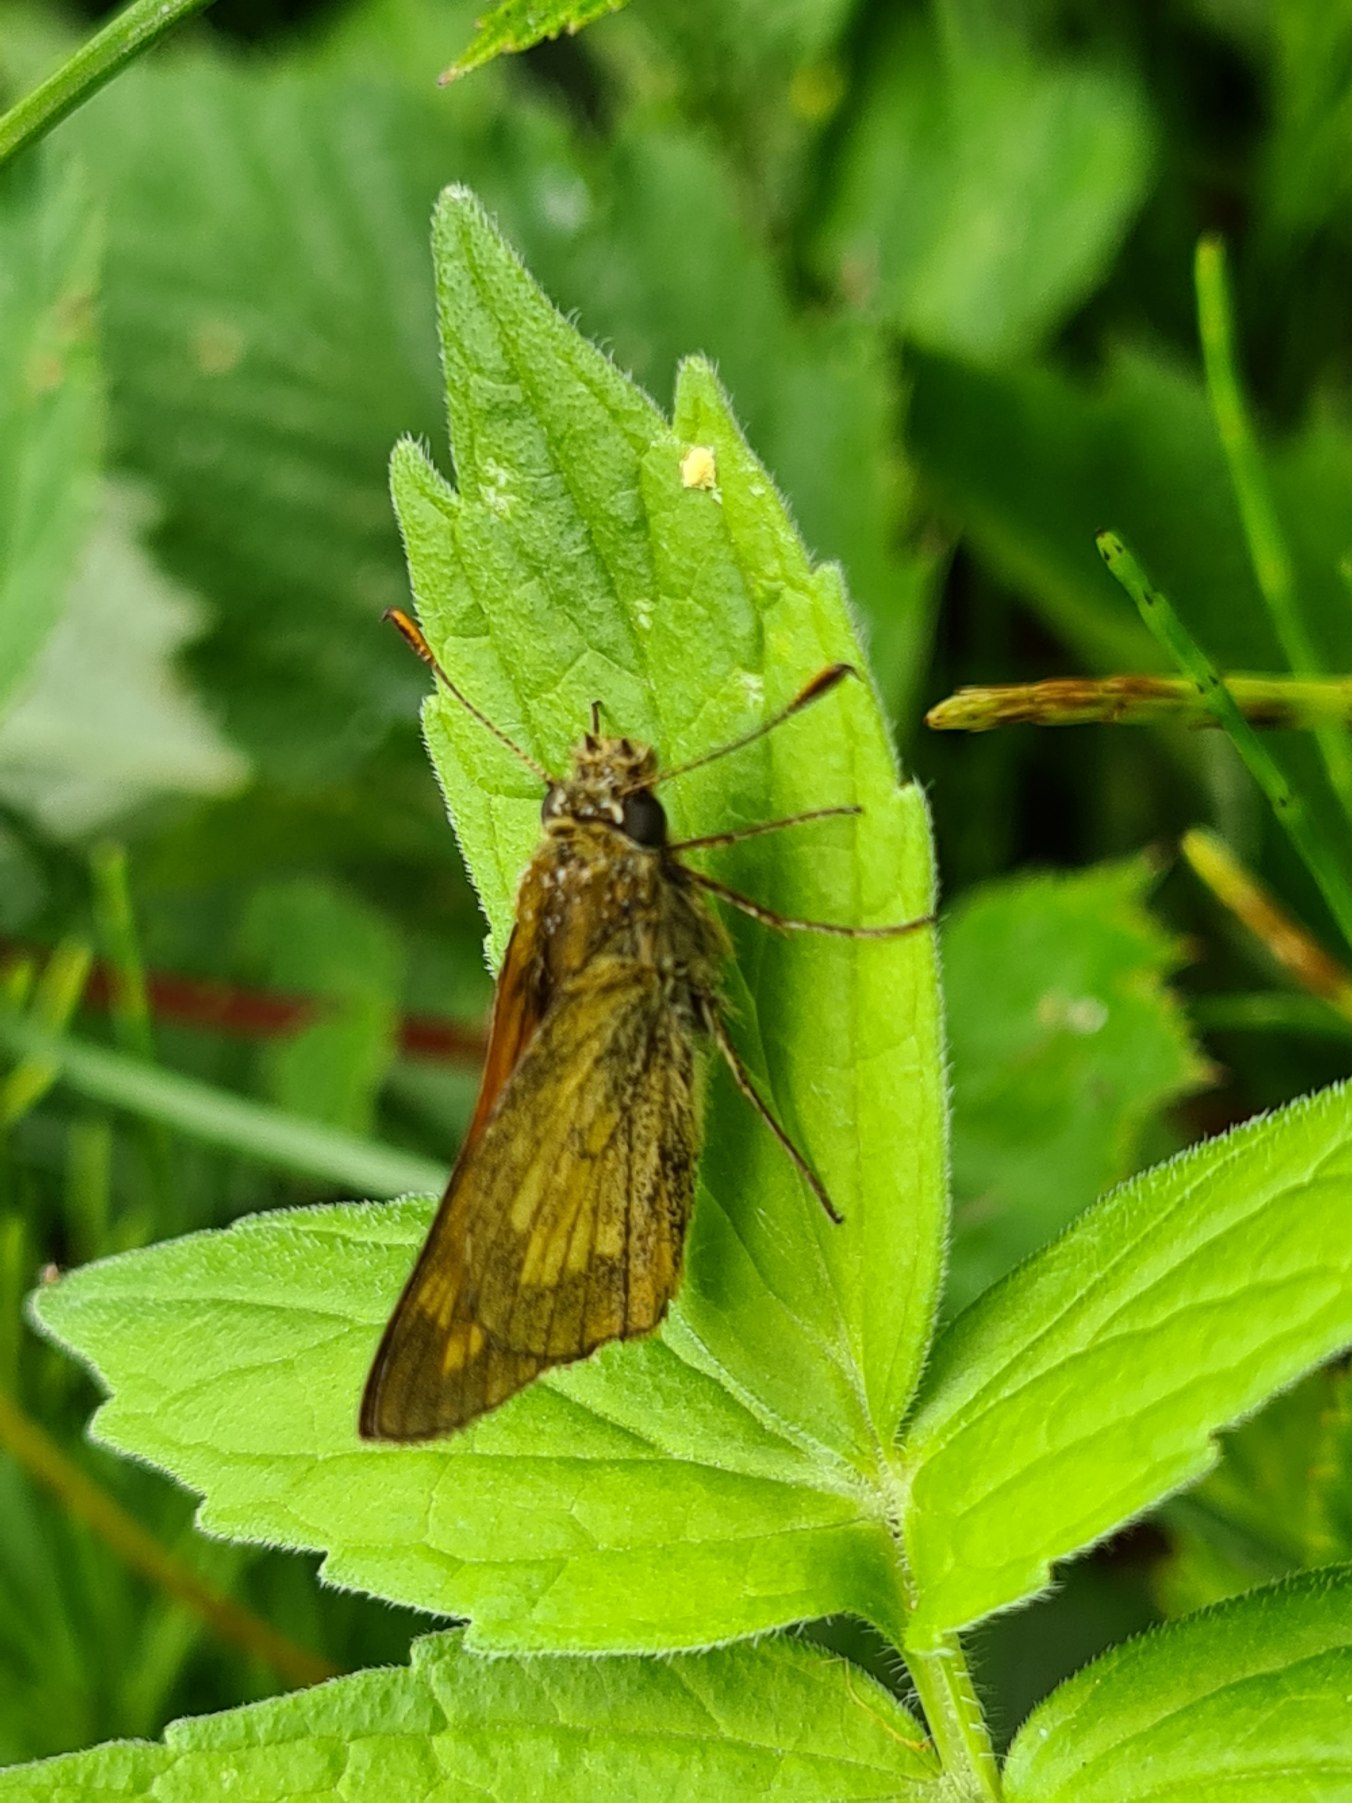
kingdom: Animalia
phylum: Arthropoda
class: Insecta
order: Lepidoptera
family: Hesperiidae
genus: Ochlodes
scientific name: Ochlodes venata
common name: Stor bredpande
